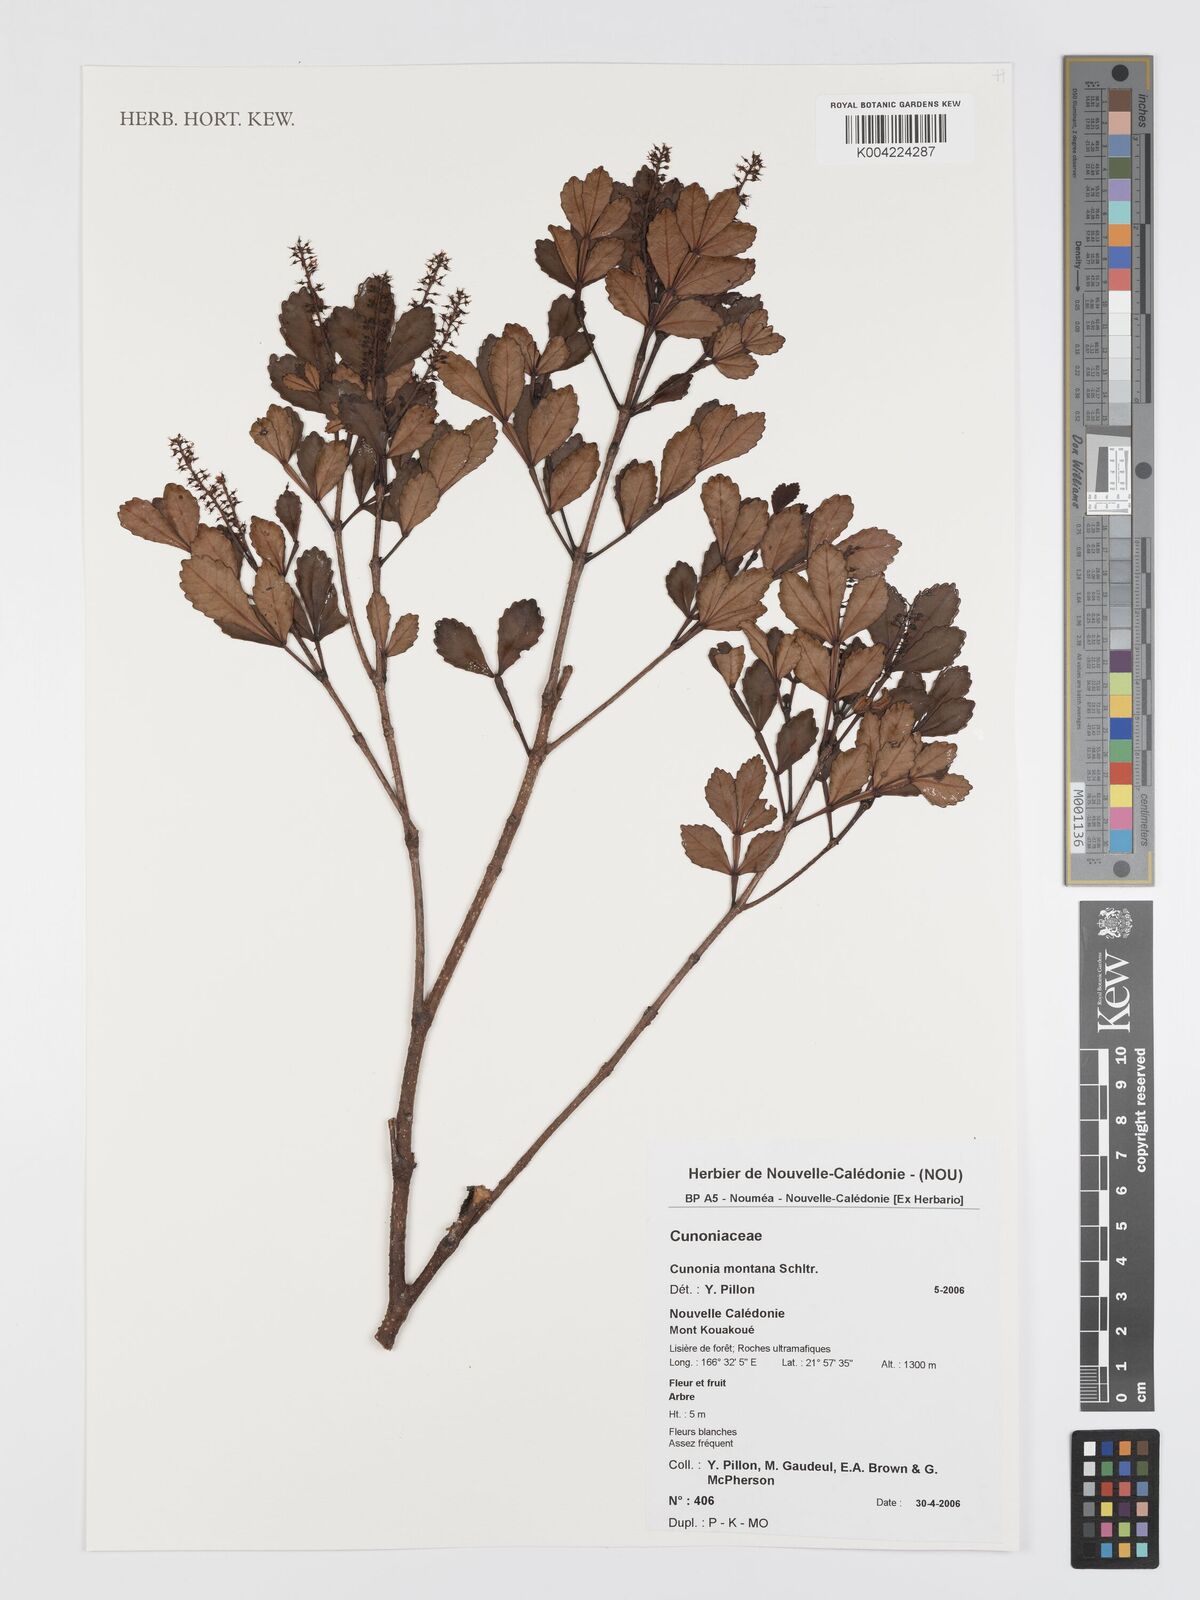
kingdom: Plantae
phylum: Tracheophyta
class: Magnoliopsida
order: Oxalidales
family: Cunoniaceae
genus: Cunonia
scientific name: Cunonia montana
